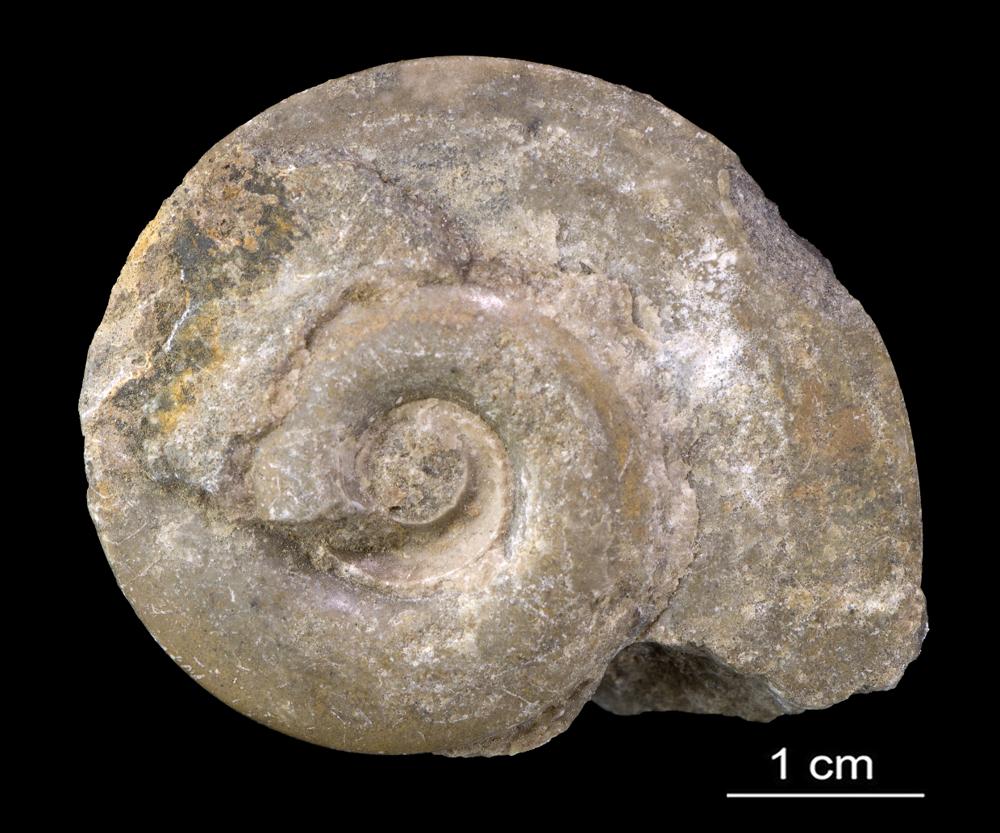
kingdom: Animalia
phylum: Mollusca
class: Gastropoda
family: Lesueurillidae
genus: Pararaphistoma
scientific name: Pararaphistoma Helicites qualteriata
